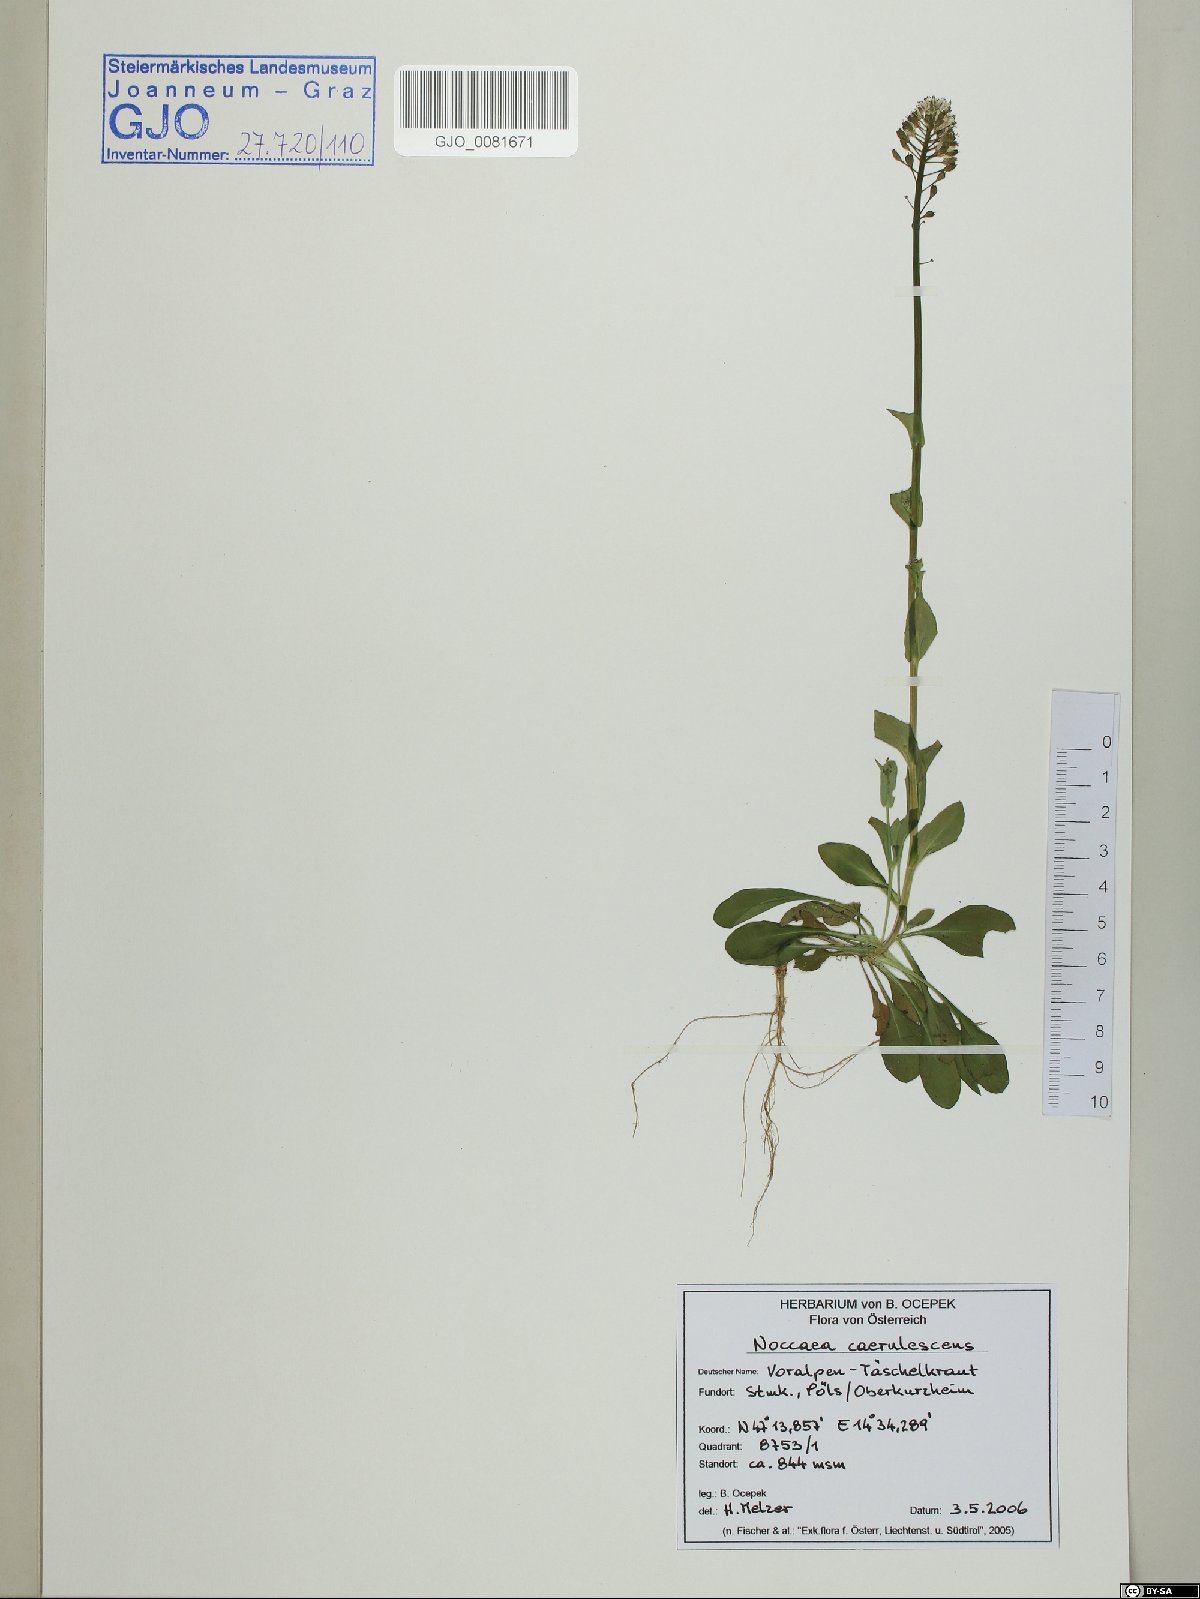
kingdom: Plantae
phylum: Tracheophyta
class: Magnoliopsida
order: Brassicales
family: Brassicaceae
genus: Noccaea
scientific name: Noccaea caerulescens
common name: Alpine pennycress
